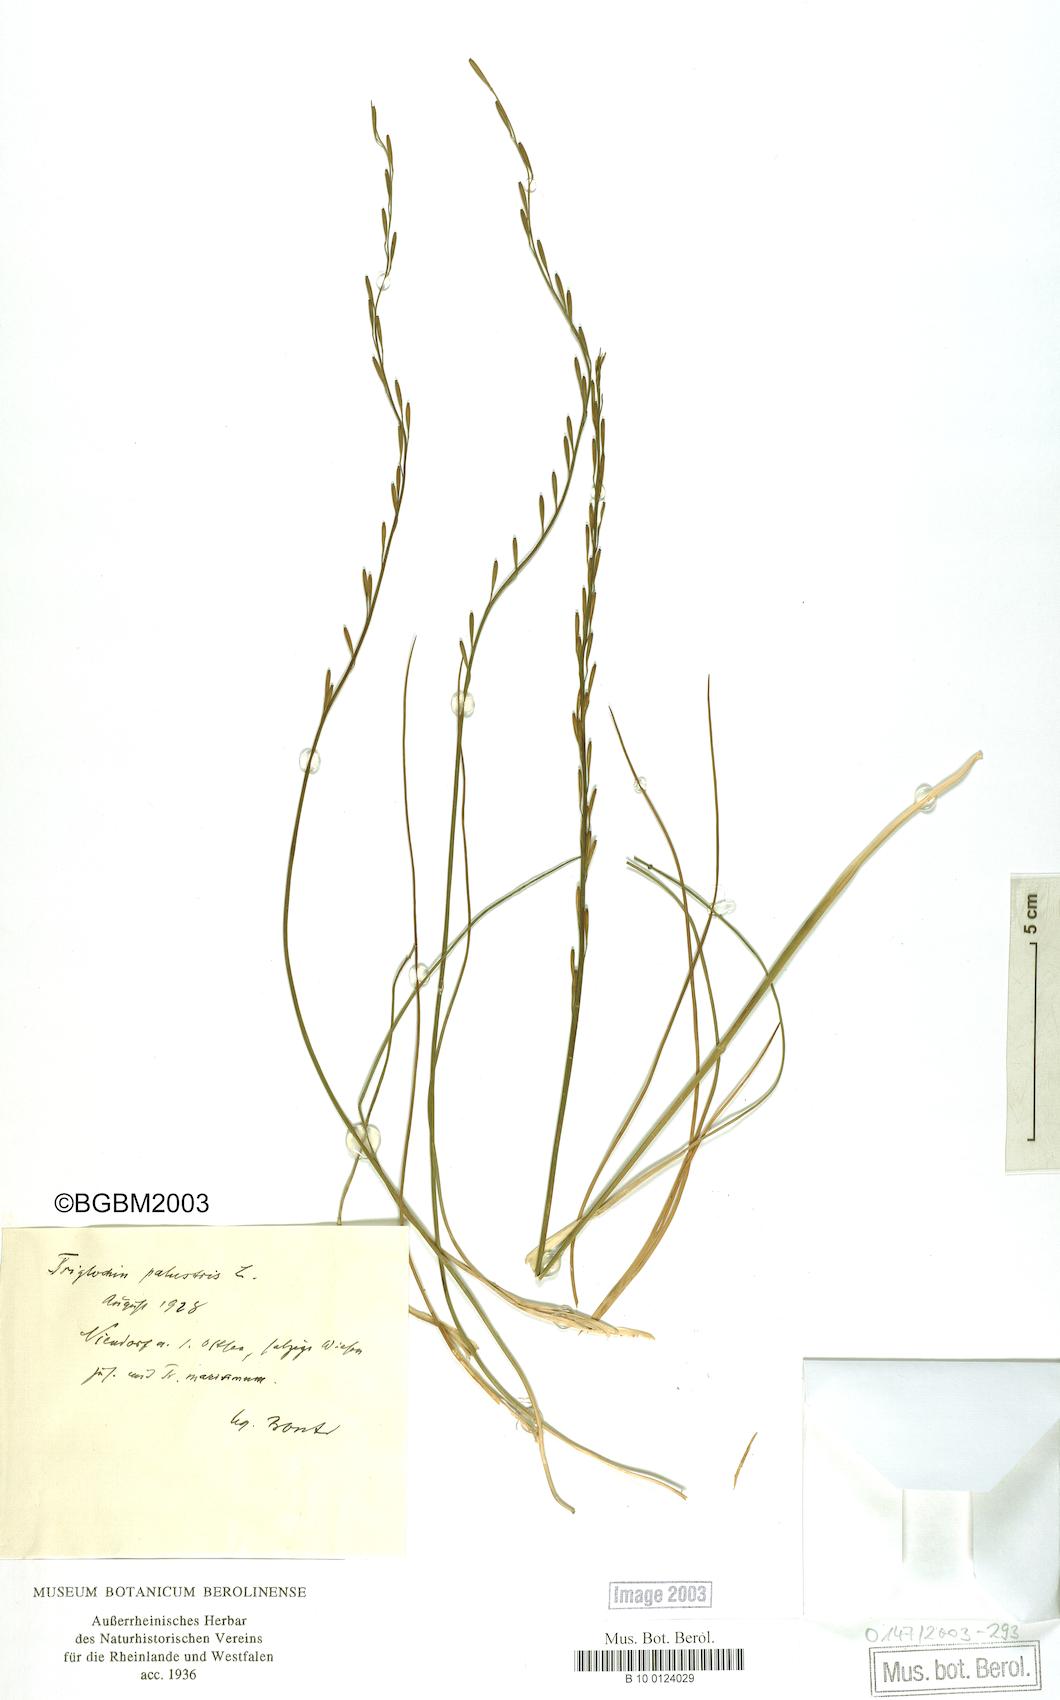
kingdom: Plantae
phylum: Tracheophyta
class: Liliopsida
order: Alismatales
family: Juncaginaceae
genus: Triglochin
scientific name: Triglochin palustris
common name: Marsh arrowgrass
